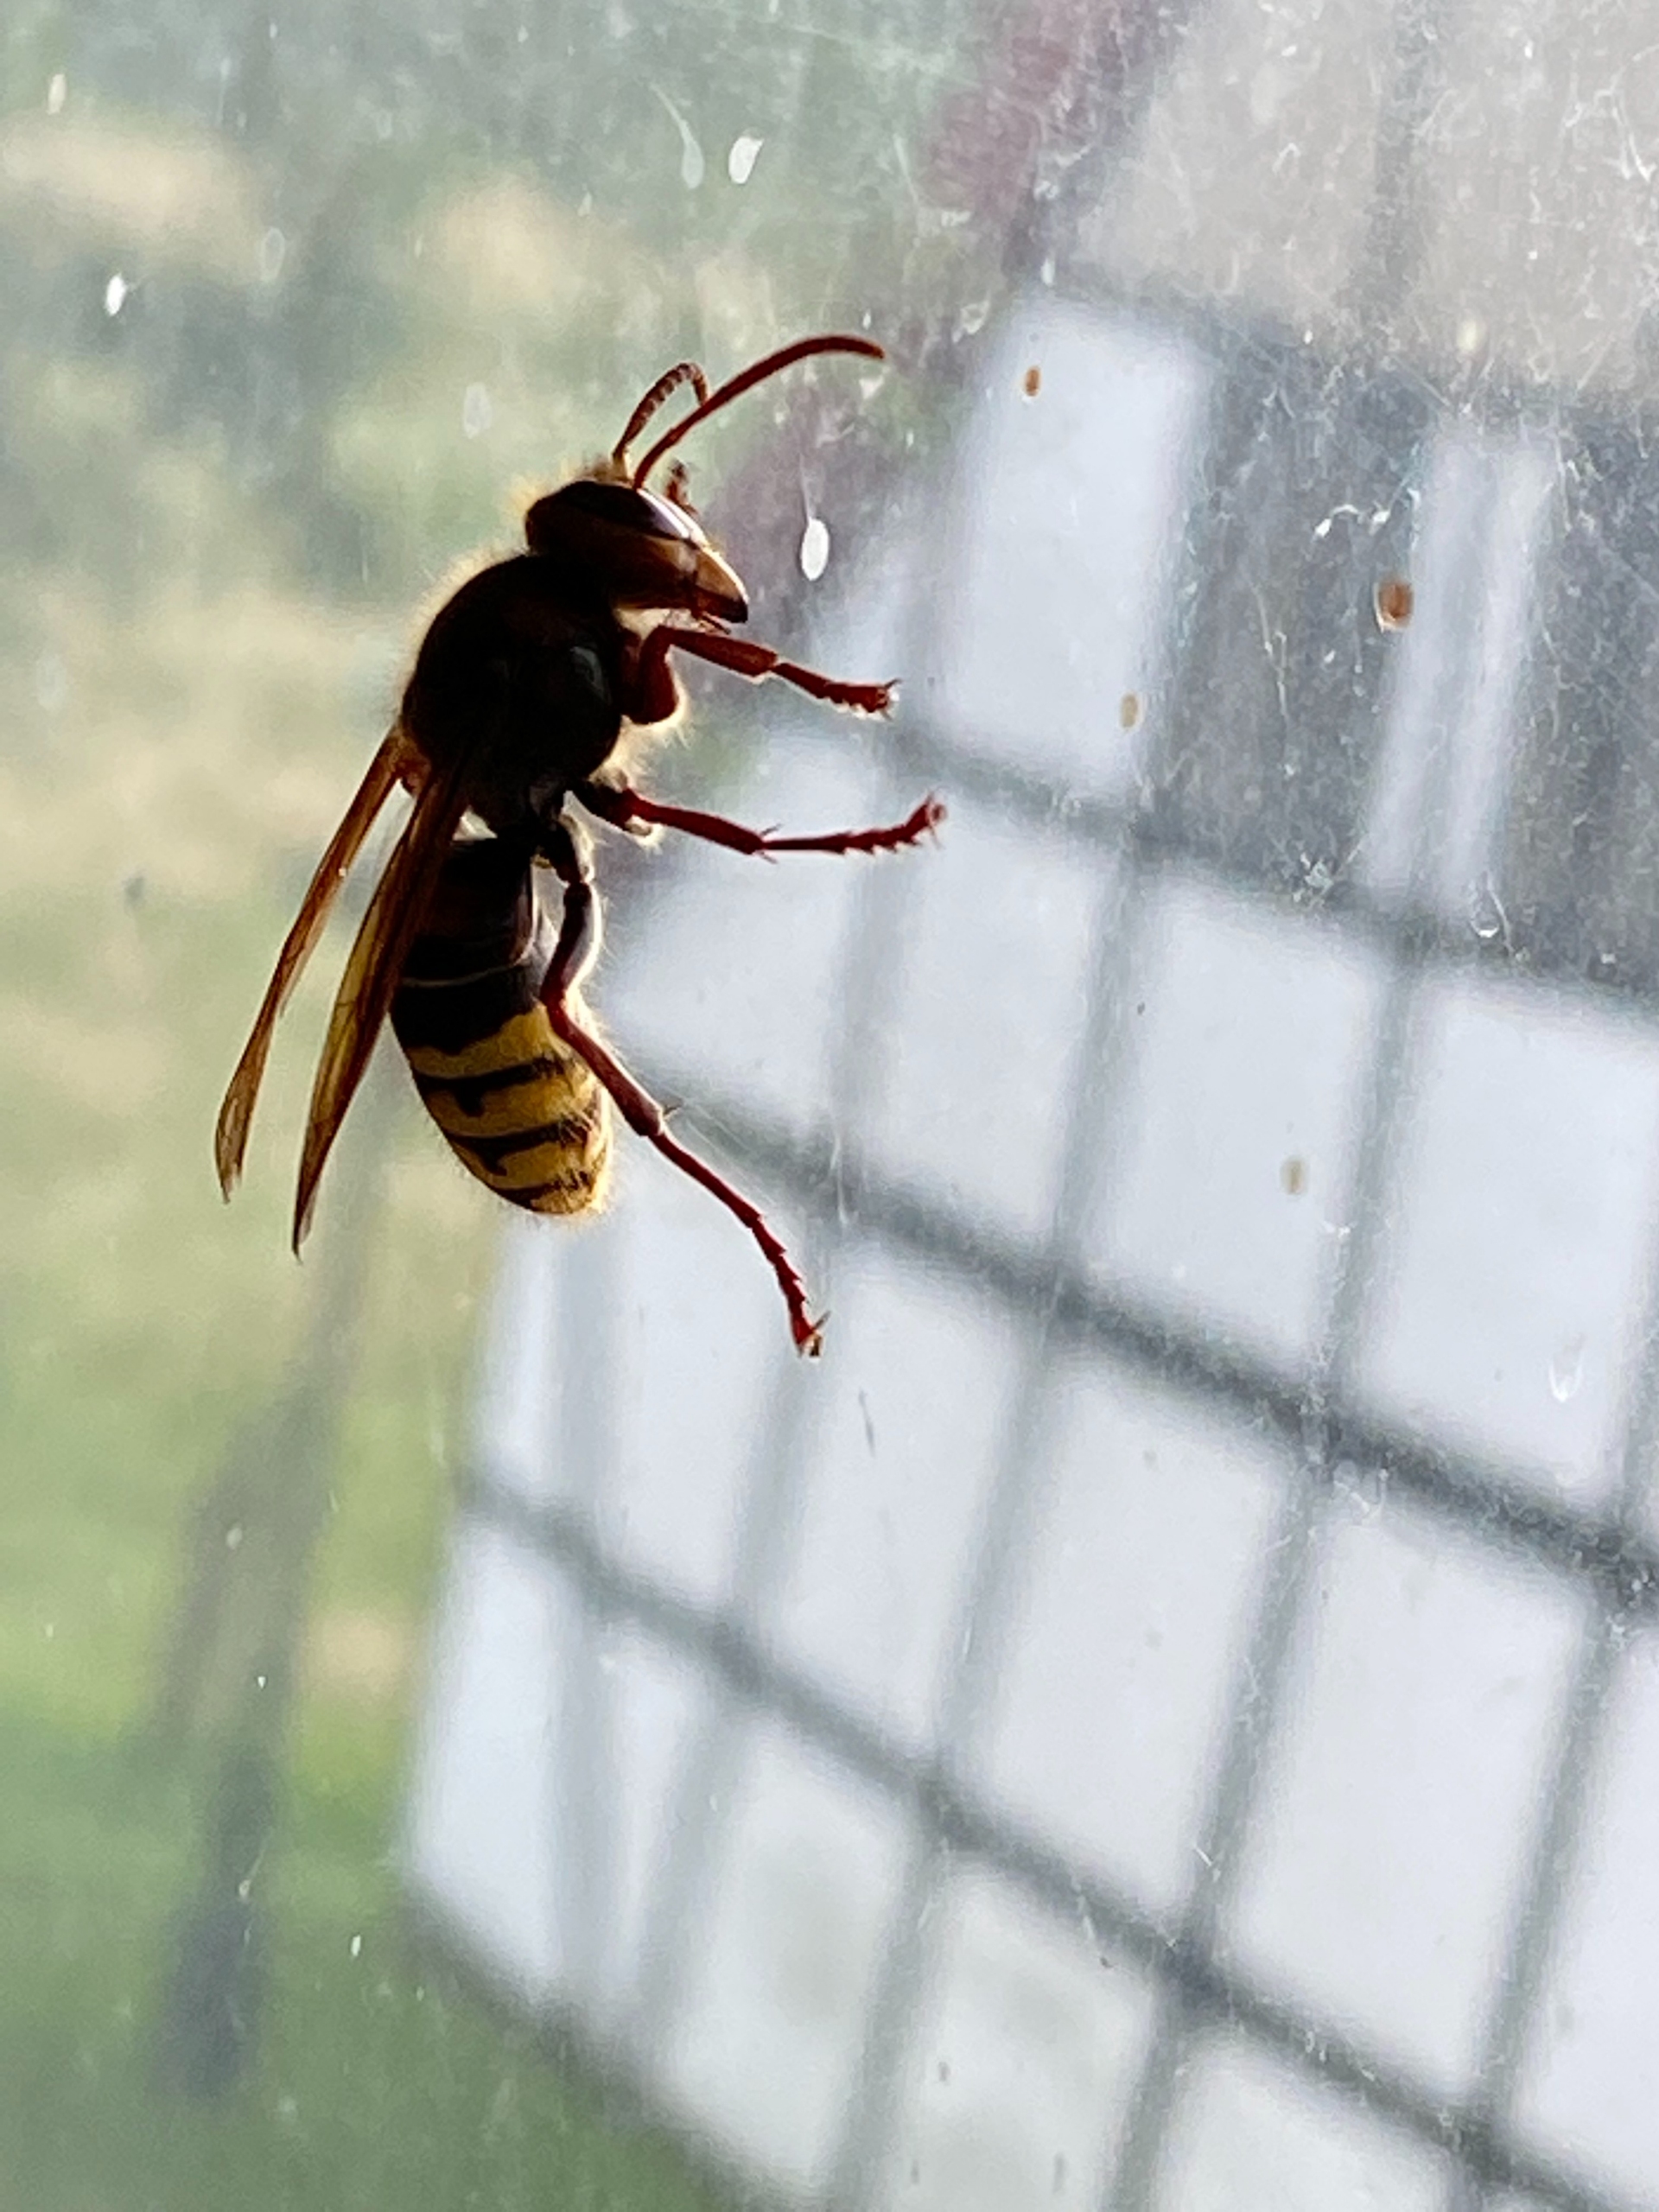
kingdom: Animalia
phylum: Arthropoda
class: Insecta
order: Hymenoptera
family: Vespidae
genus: Vespa
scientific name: Vespa crabro
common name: Stor gedehams
